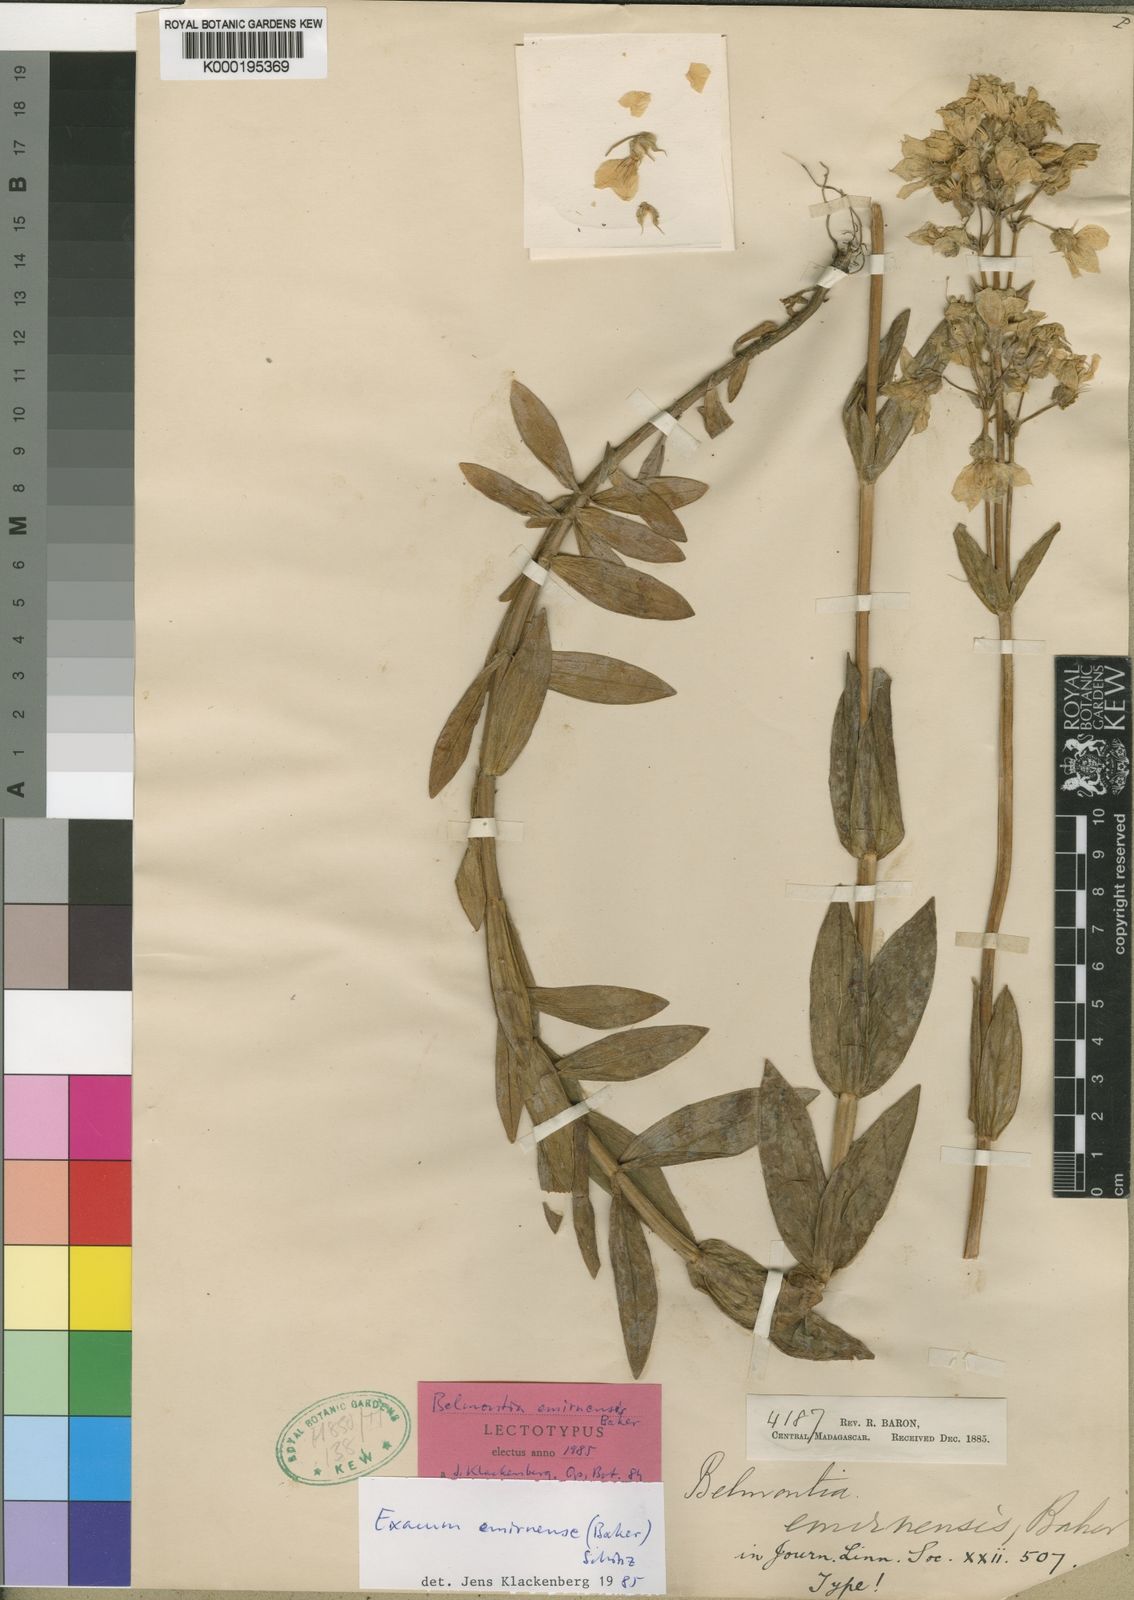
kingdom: Plantae
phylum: Tracheophyta
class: Magnoliopsida
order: Gentianales
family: Gentianaceae
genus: Exacum
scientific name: Exacum emirnense
